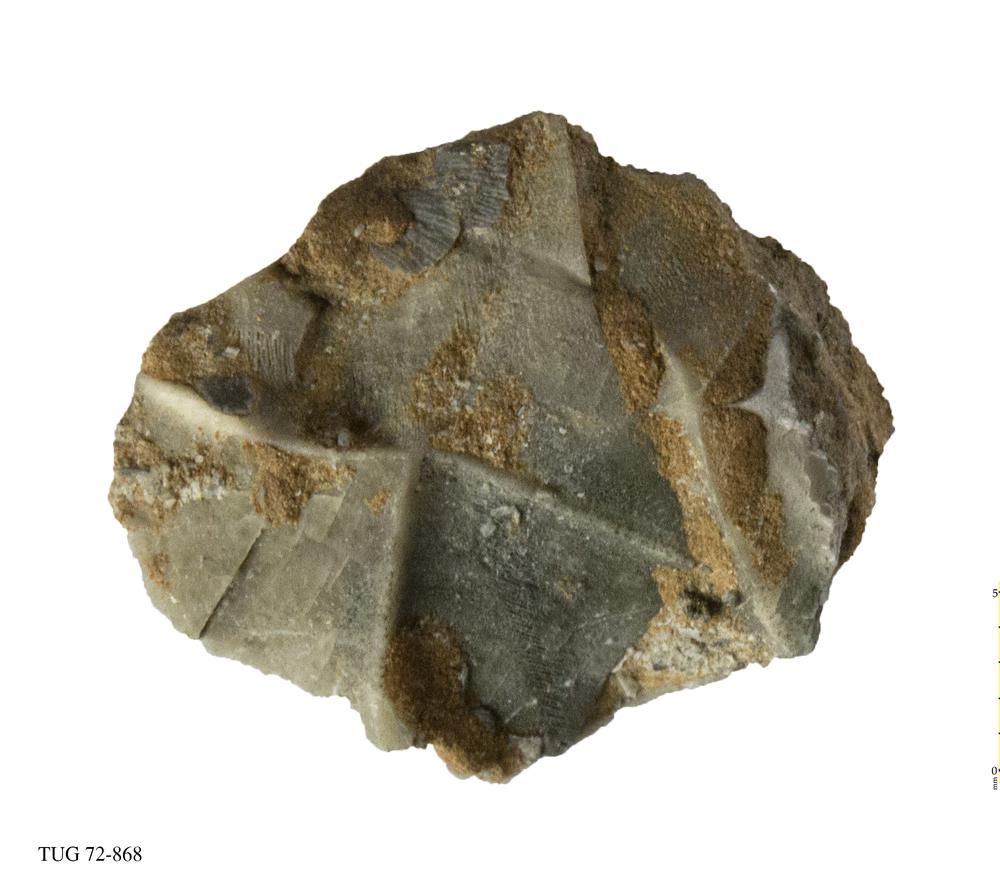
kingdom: Animalia
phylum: Echinodermata
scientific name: Echinodermata
